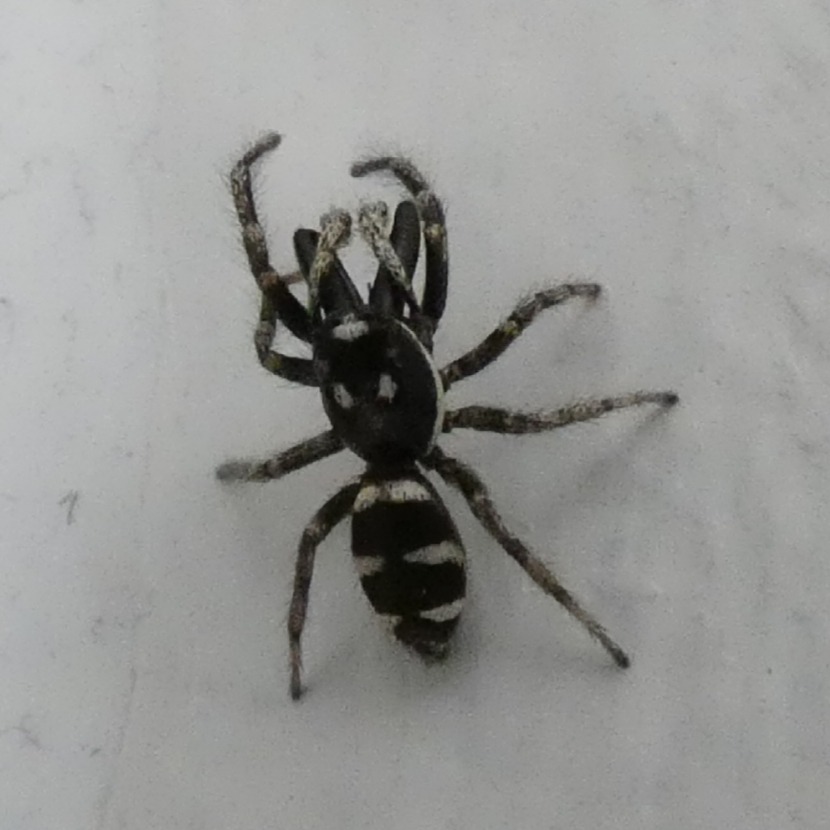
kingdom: Animalia
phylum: Arthropoda
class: Arachnida
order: Araneae
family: Salticidae
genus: Salticus
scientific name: Salticus scenicus
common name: Almindelig zebraedderkop
